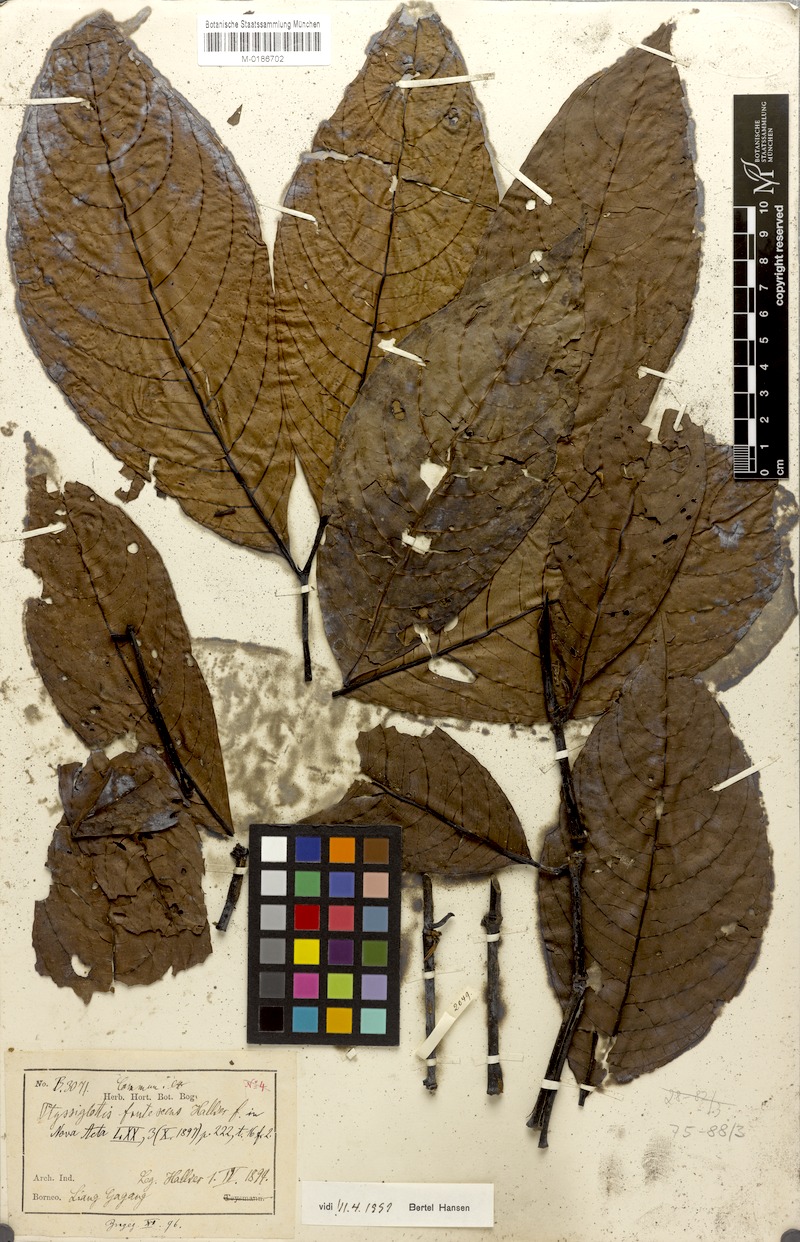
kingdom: Plantae
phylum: Tracheophyta
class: Magnoliopsida
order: Lamiales
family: Acanthaceae
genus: Ptyssiglottis
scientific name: Ptyssiglottis lanceolata
